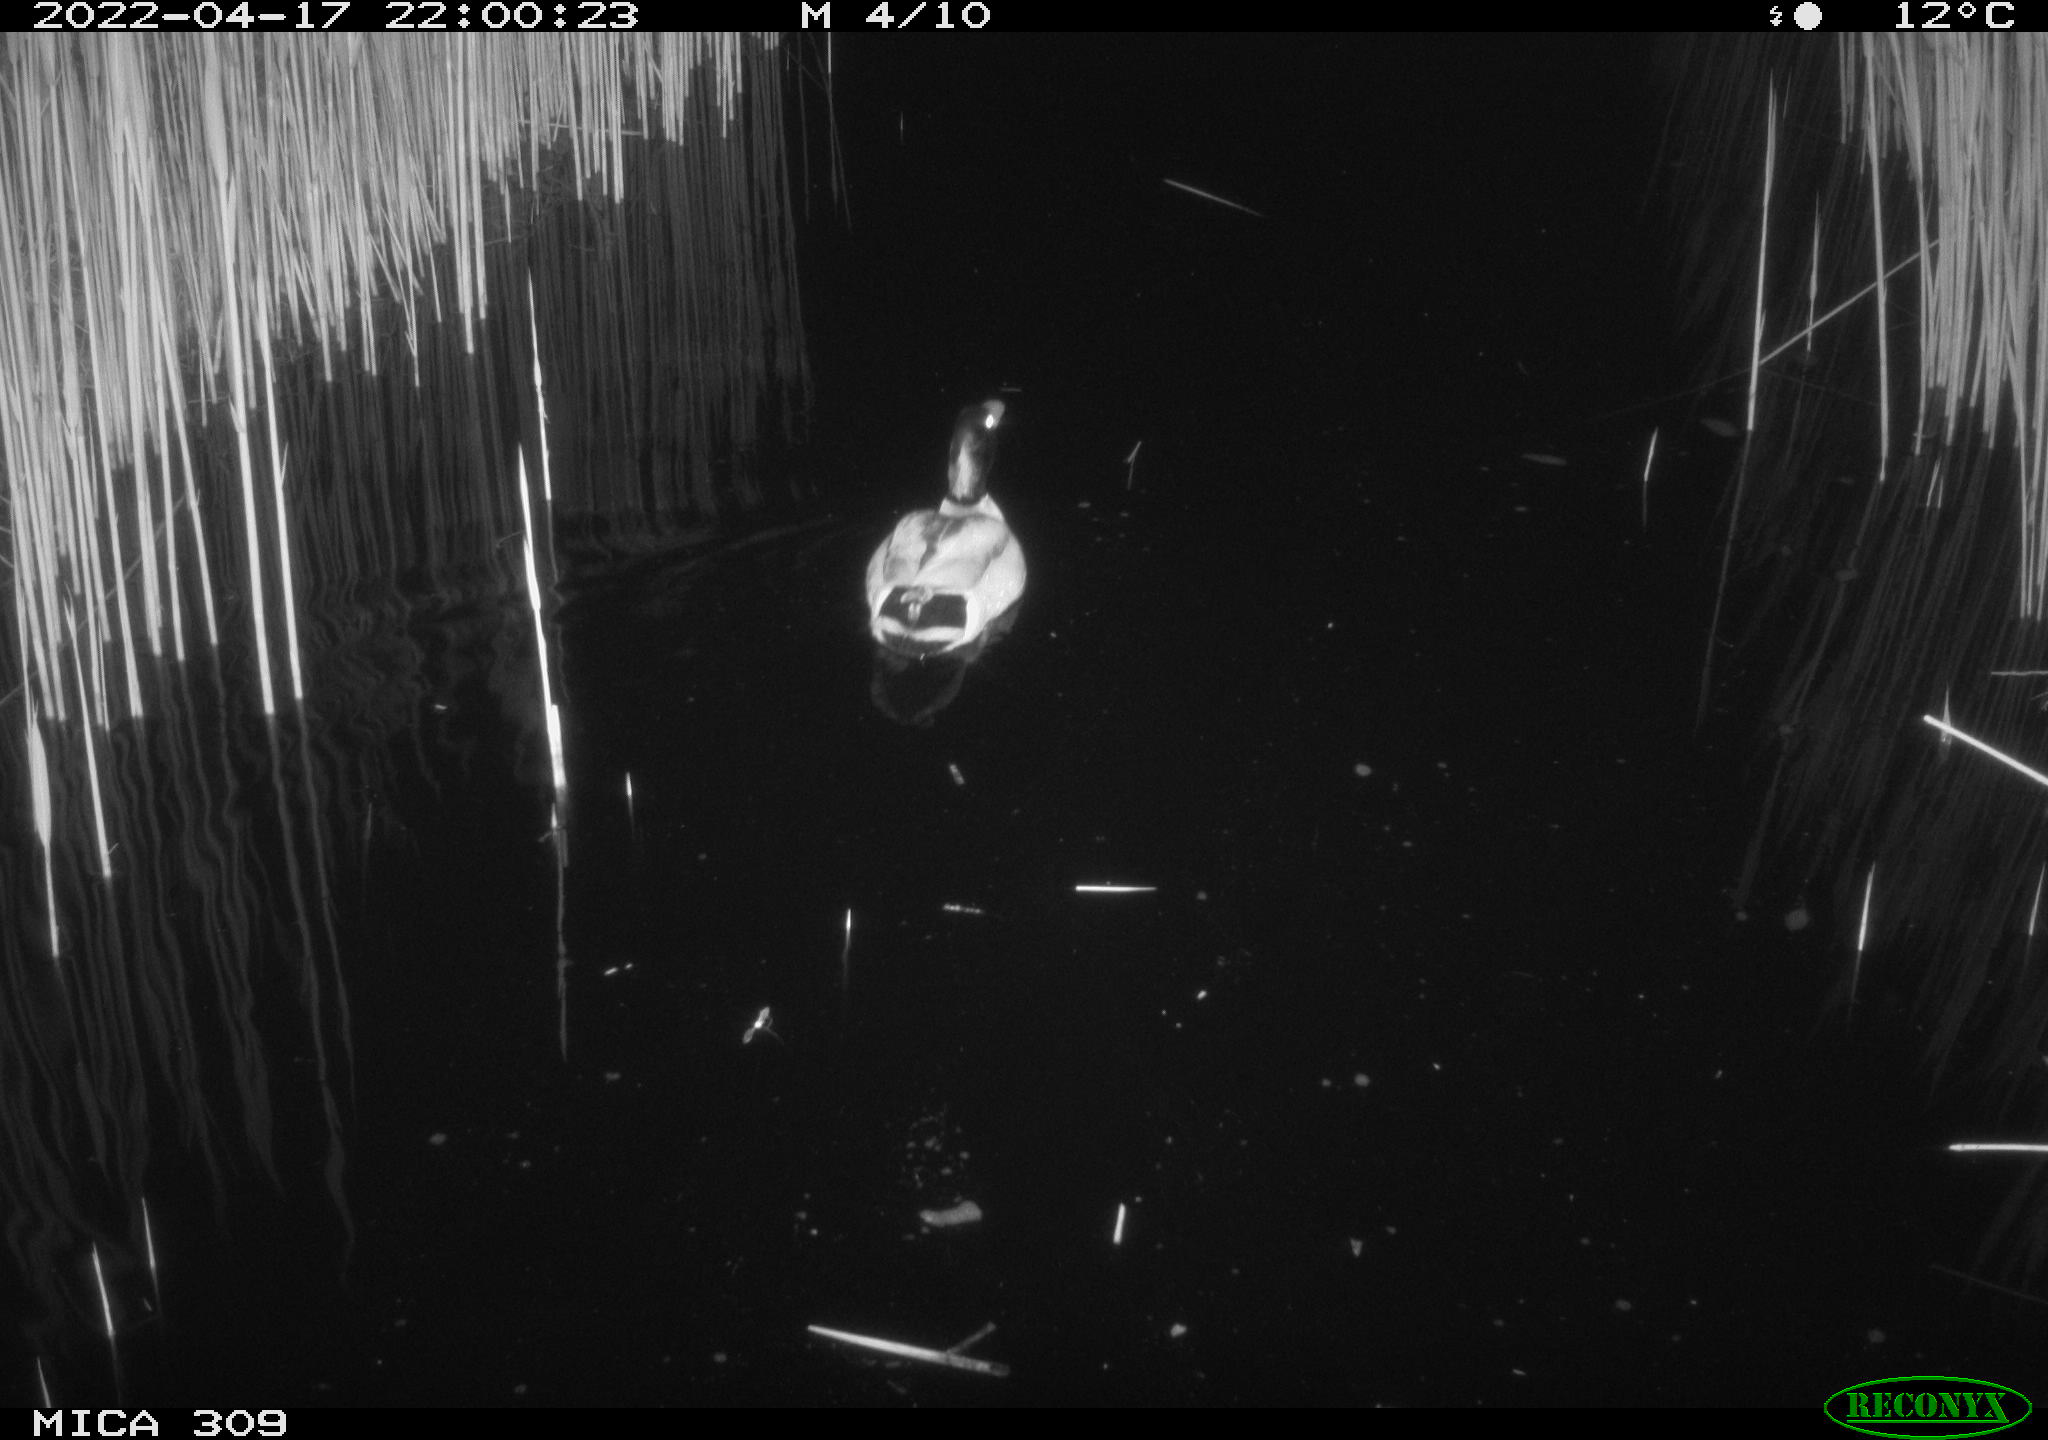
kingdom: Animalia
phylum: Chordata
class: Aves
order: Anseriformes
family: Anatidae
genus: Anas
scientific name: Anas platyrhynchos
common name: Mallard
